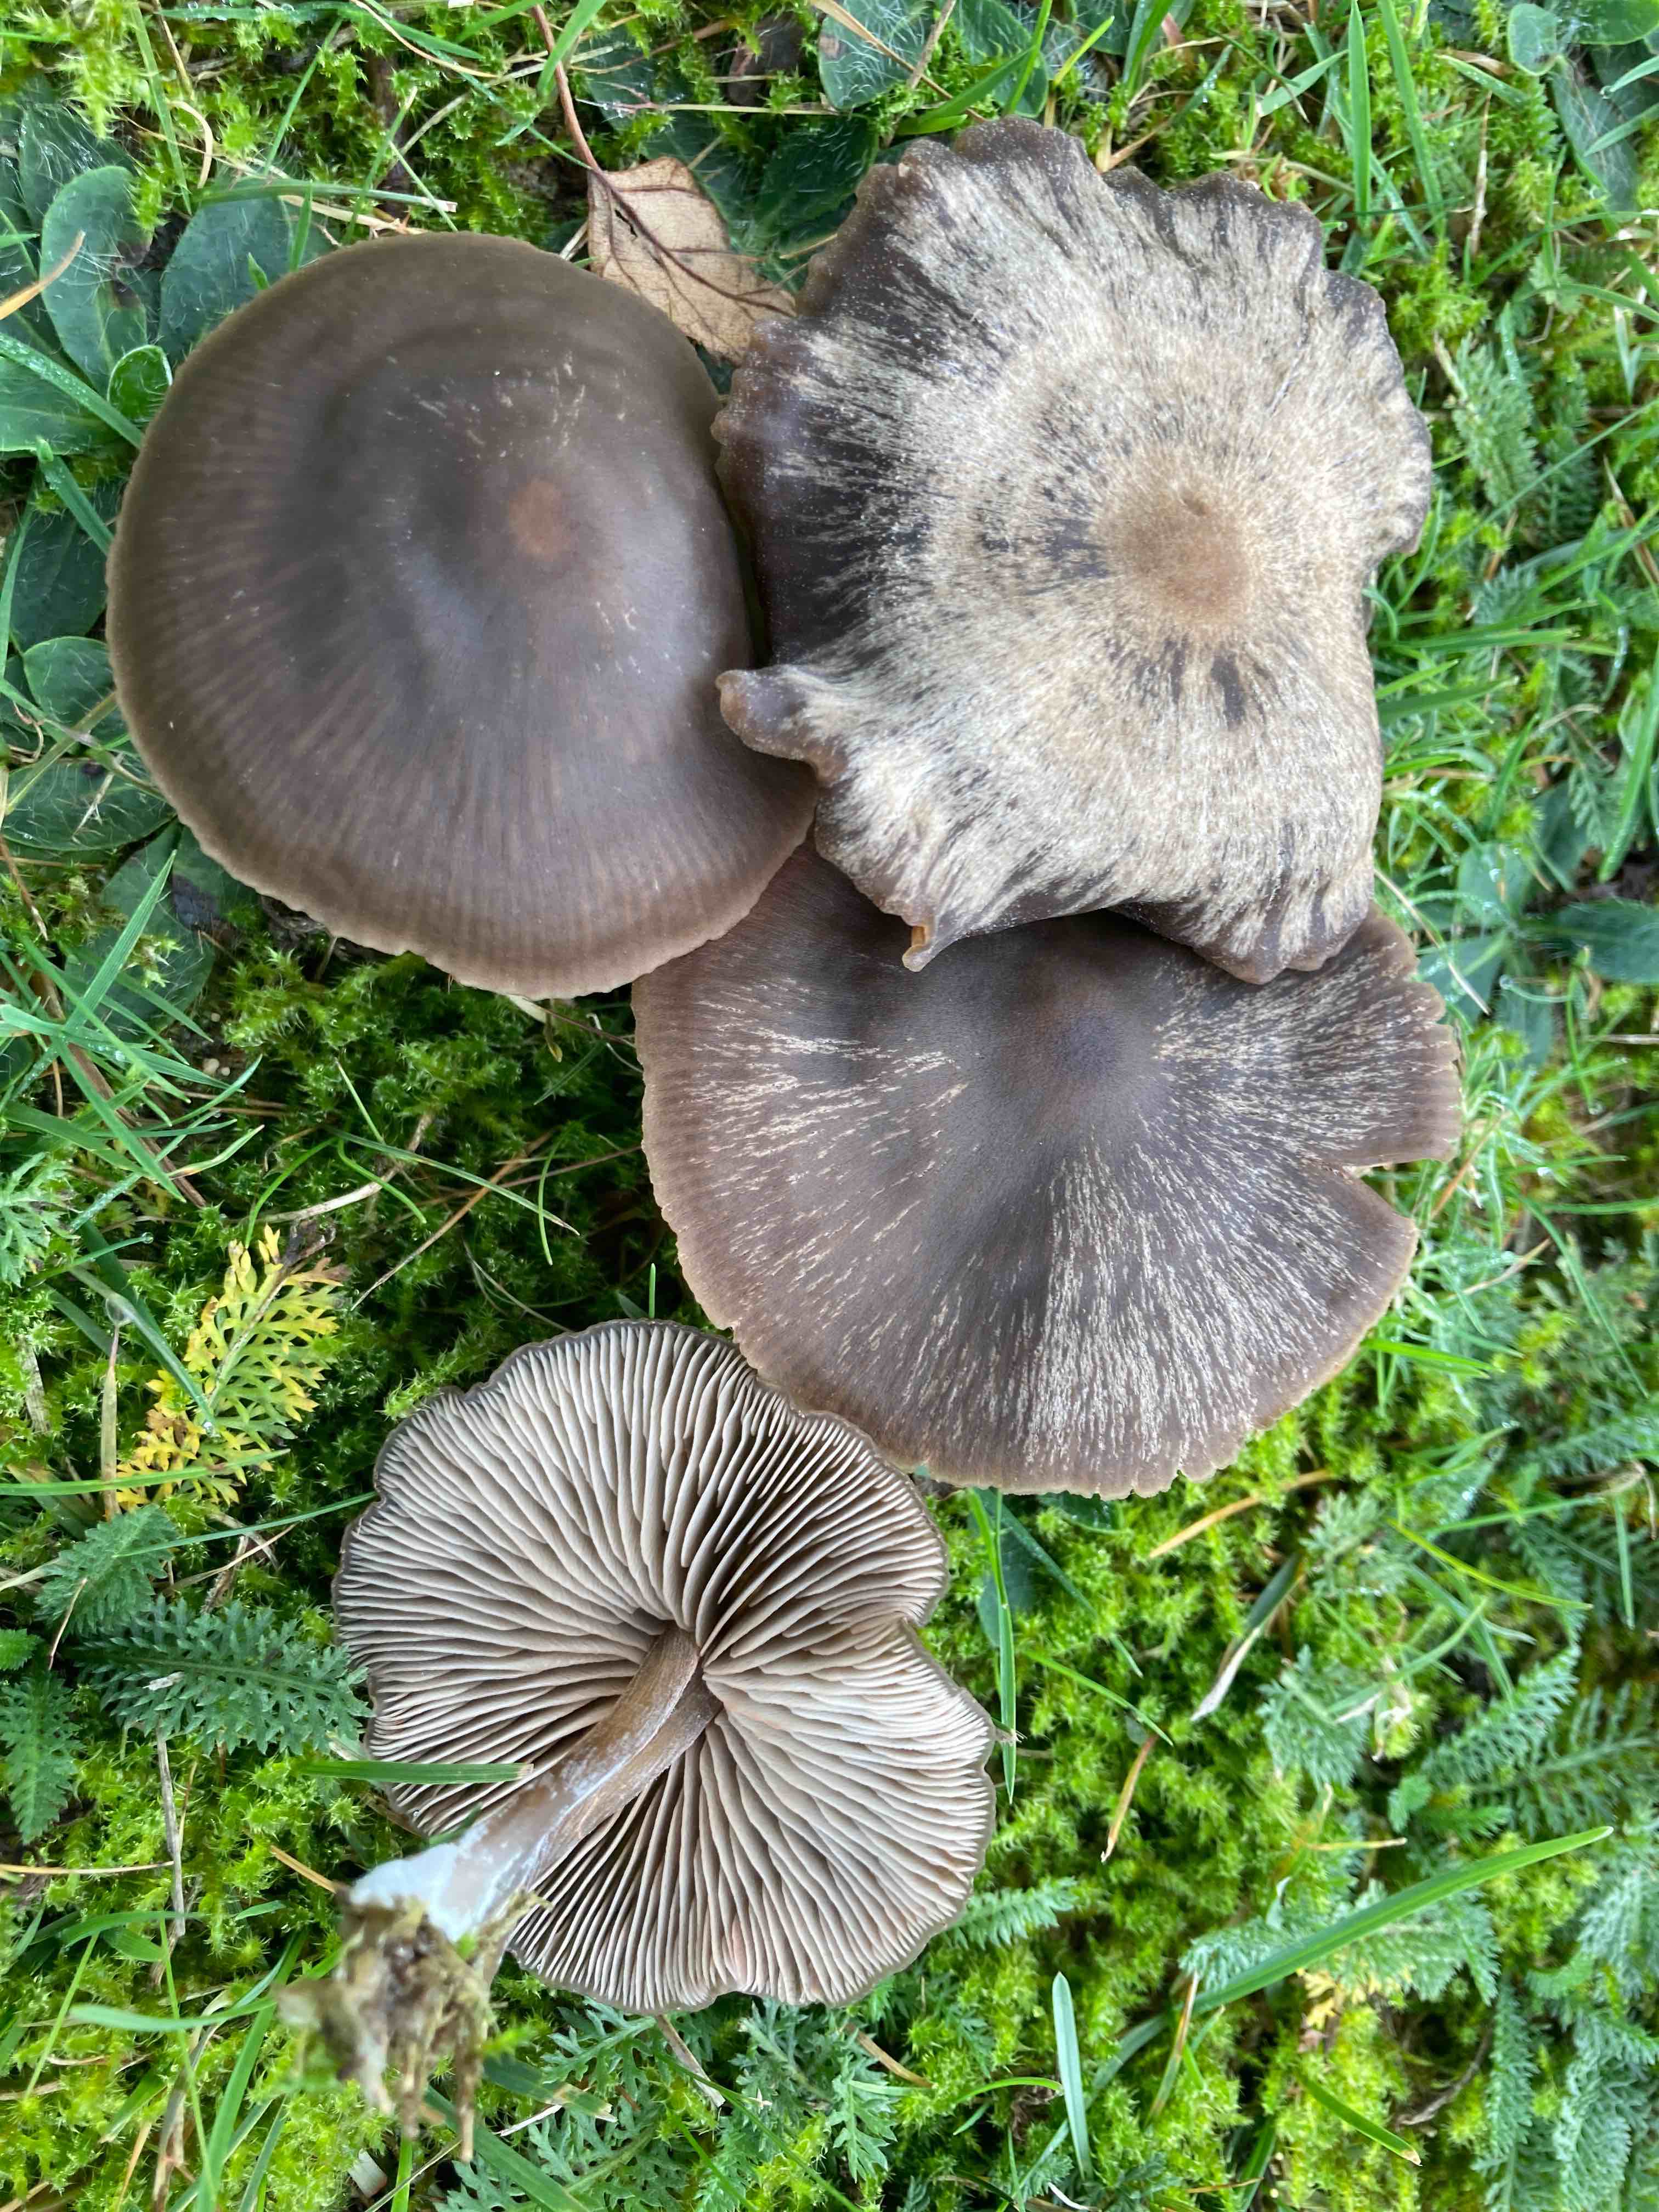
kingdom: Fungi
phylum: Basidiomycota
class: Agaricomycetes
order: Agaricales
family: Entolomataceae
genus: Entoloma
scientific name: Entoloma sericeum
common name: silkeglinsende rødblad
